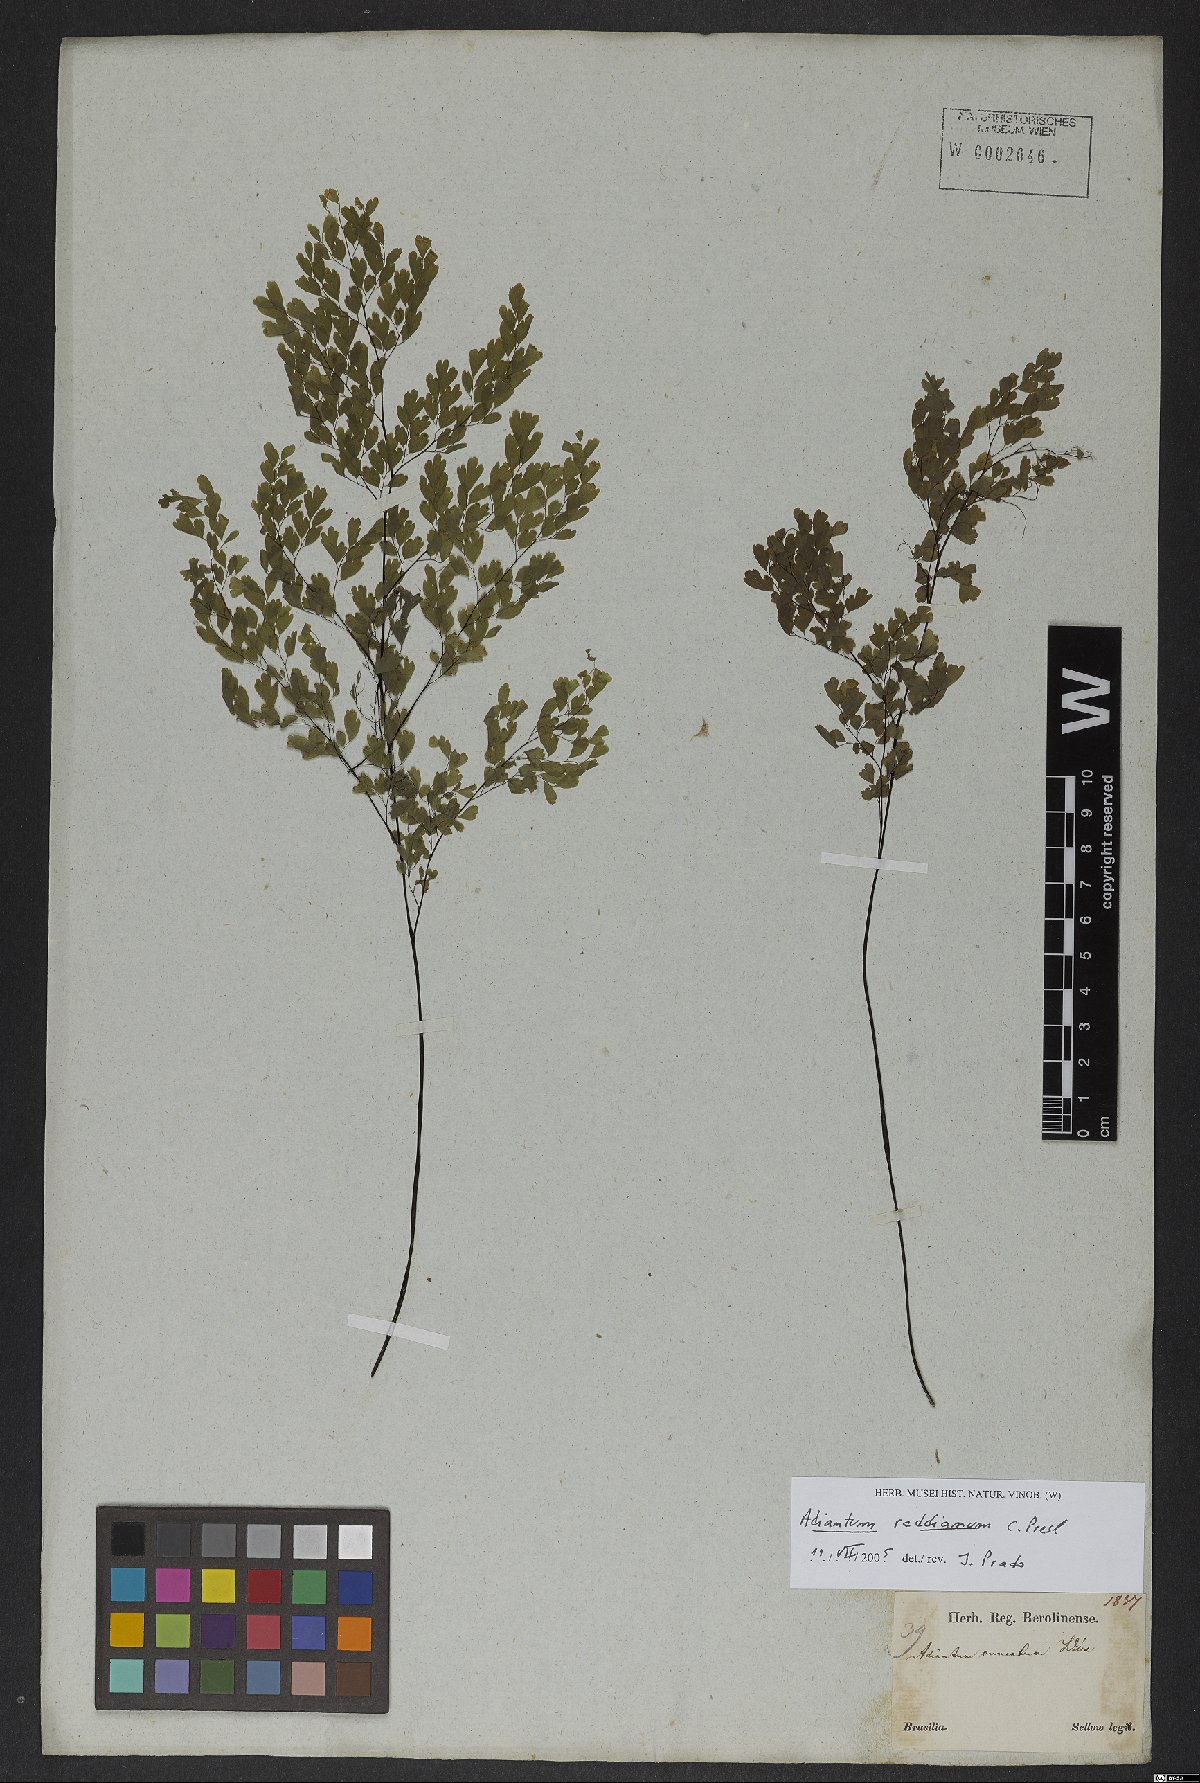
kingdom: Plantae
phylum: Tracheophyta
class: Polypodiopsida
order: Polypodiales
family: Pteridaceae
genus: Adiantum
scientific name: Adiantum raddianum
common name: Delta maidenhair fern
